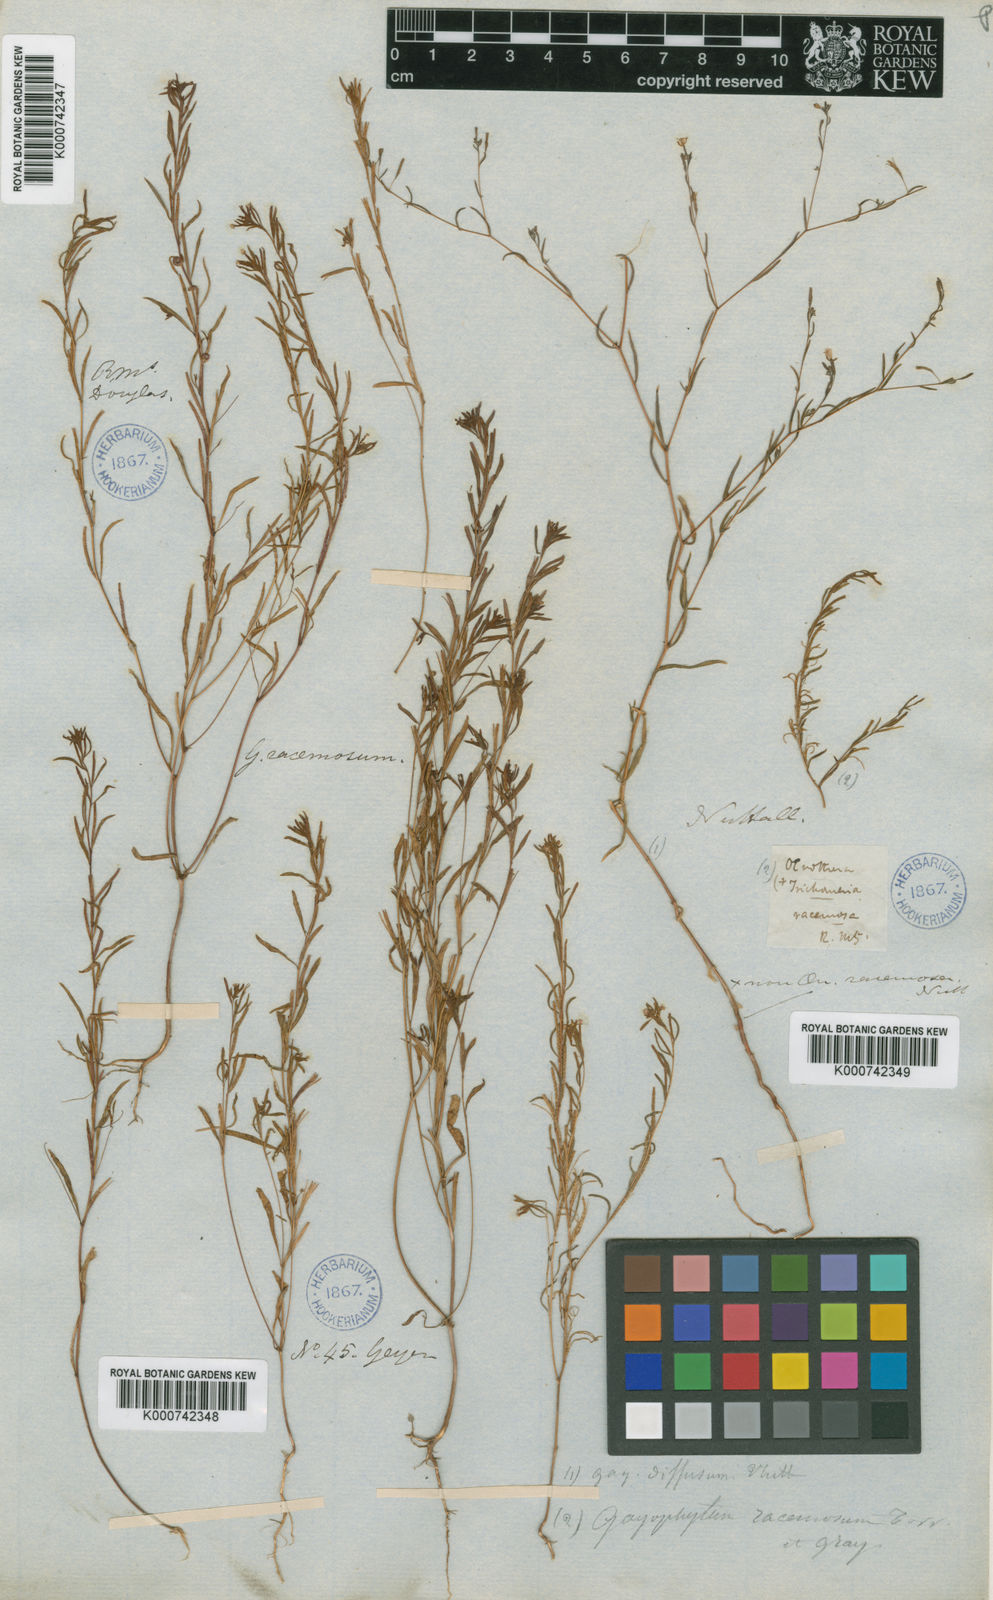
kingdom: Plantae
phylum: Tracheophyta
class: Magnoliopsida
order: Myrtales
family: Onagraceae
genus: Gayophytum
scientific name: Gayophytum racemosum
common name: Blackfoot groundsmoke
